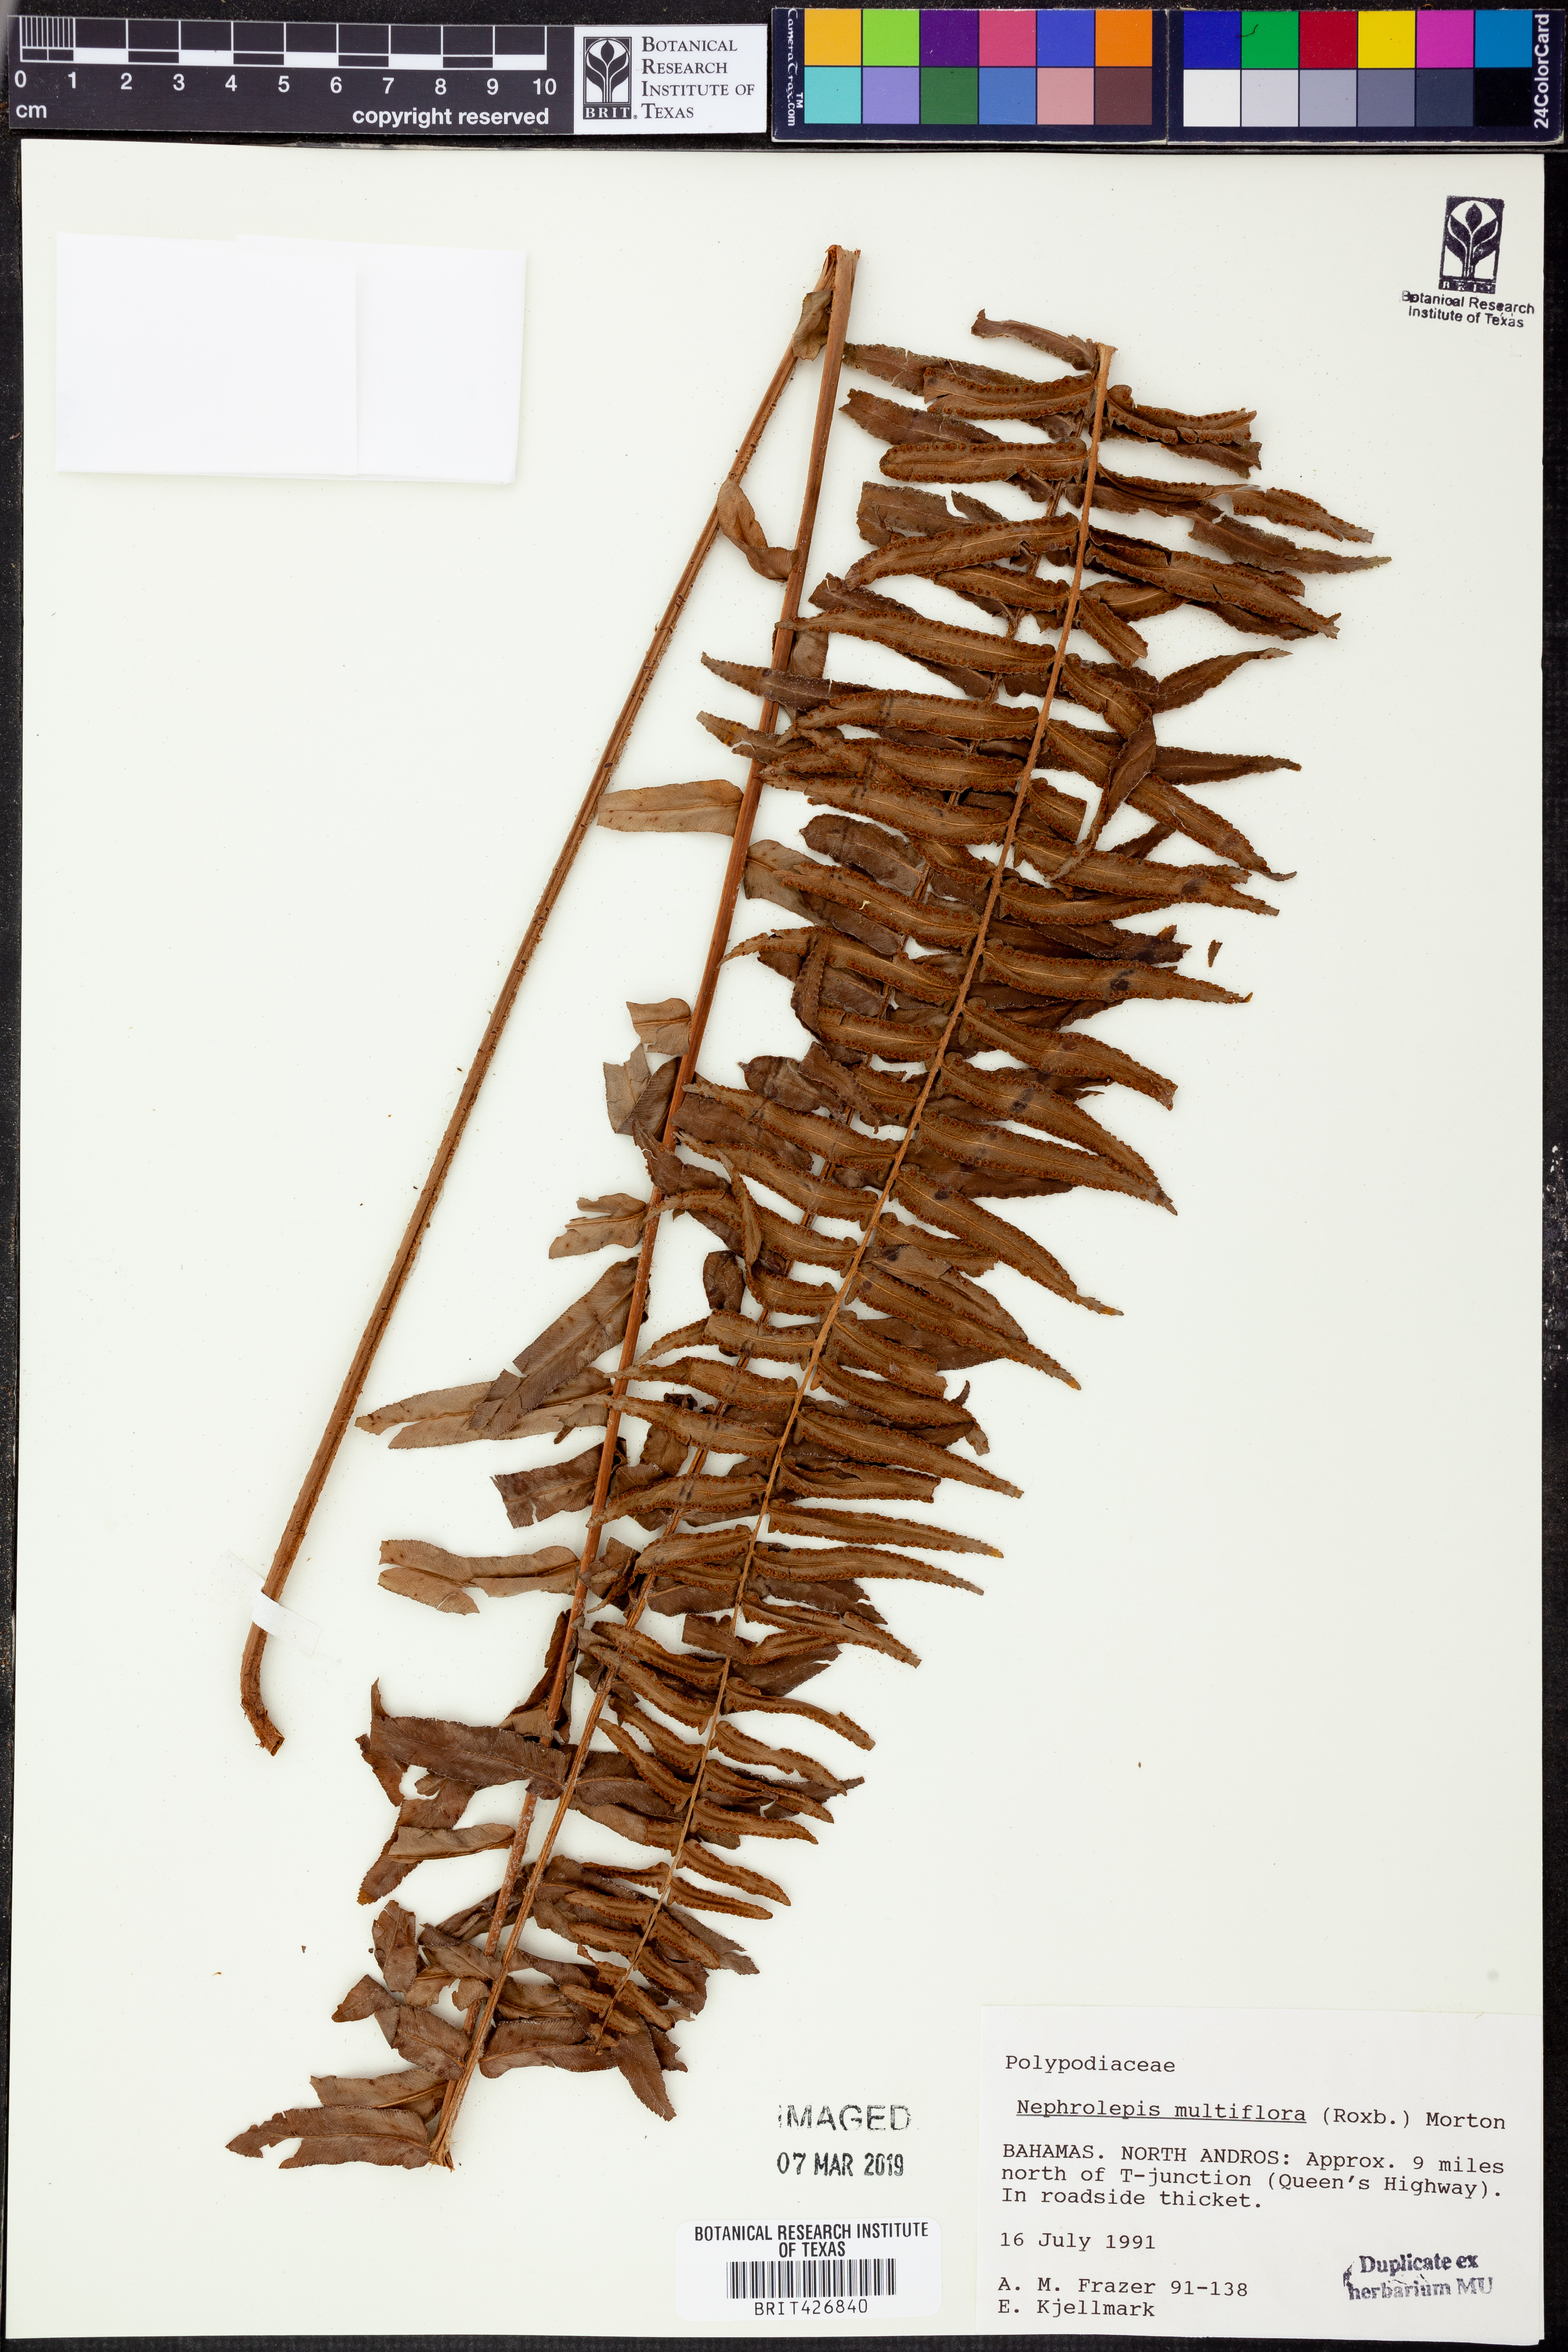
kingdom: Plantae
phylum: Tracheophyta
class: Polypodiopsida
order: Polypodiales
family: Nephrolepidaceae
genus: Nephrolepis
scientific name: Nephrolepis brownii
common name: Asian swordfern
